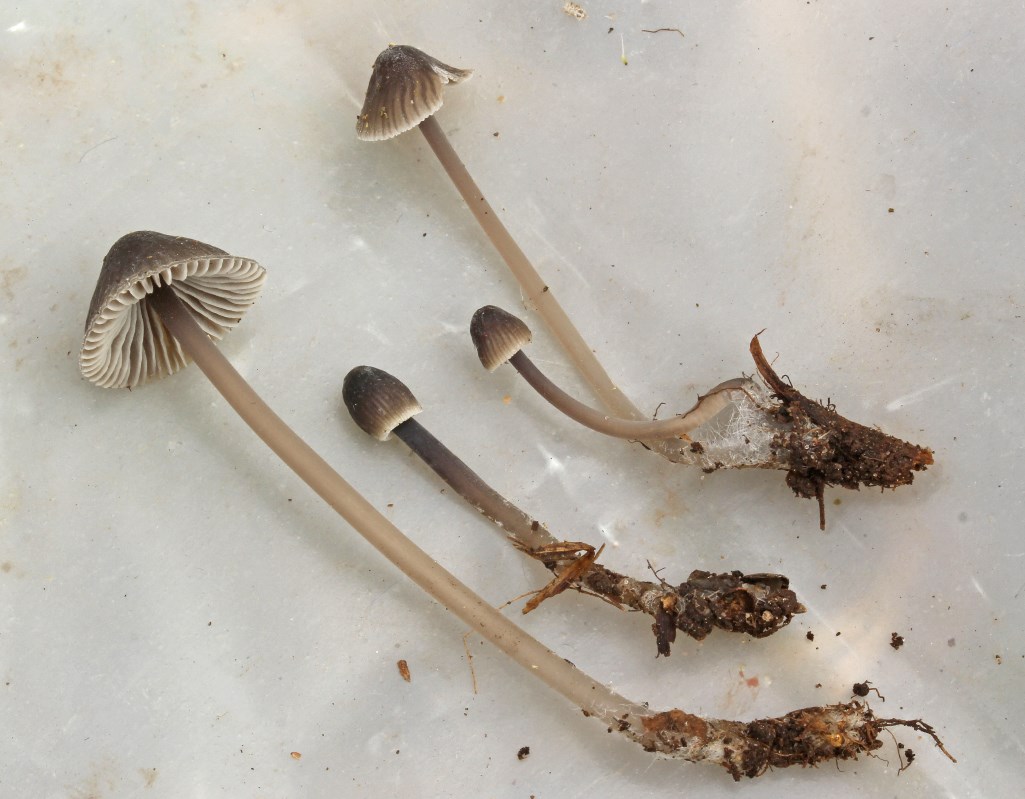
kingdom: Fungi
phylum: Basidiomycota
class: Agaricomycetes
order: Agaricales
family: Mycenaceae
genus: Mycena
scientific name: Mycena leptocephala
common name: klor-huesvamp
